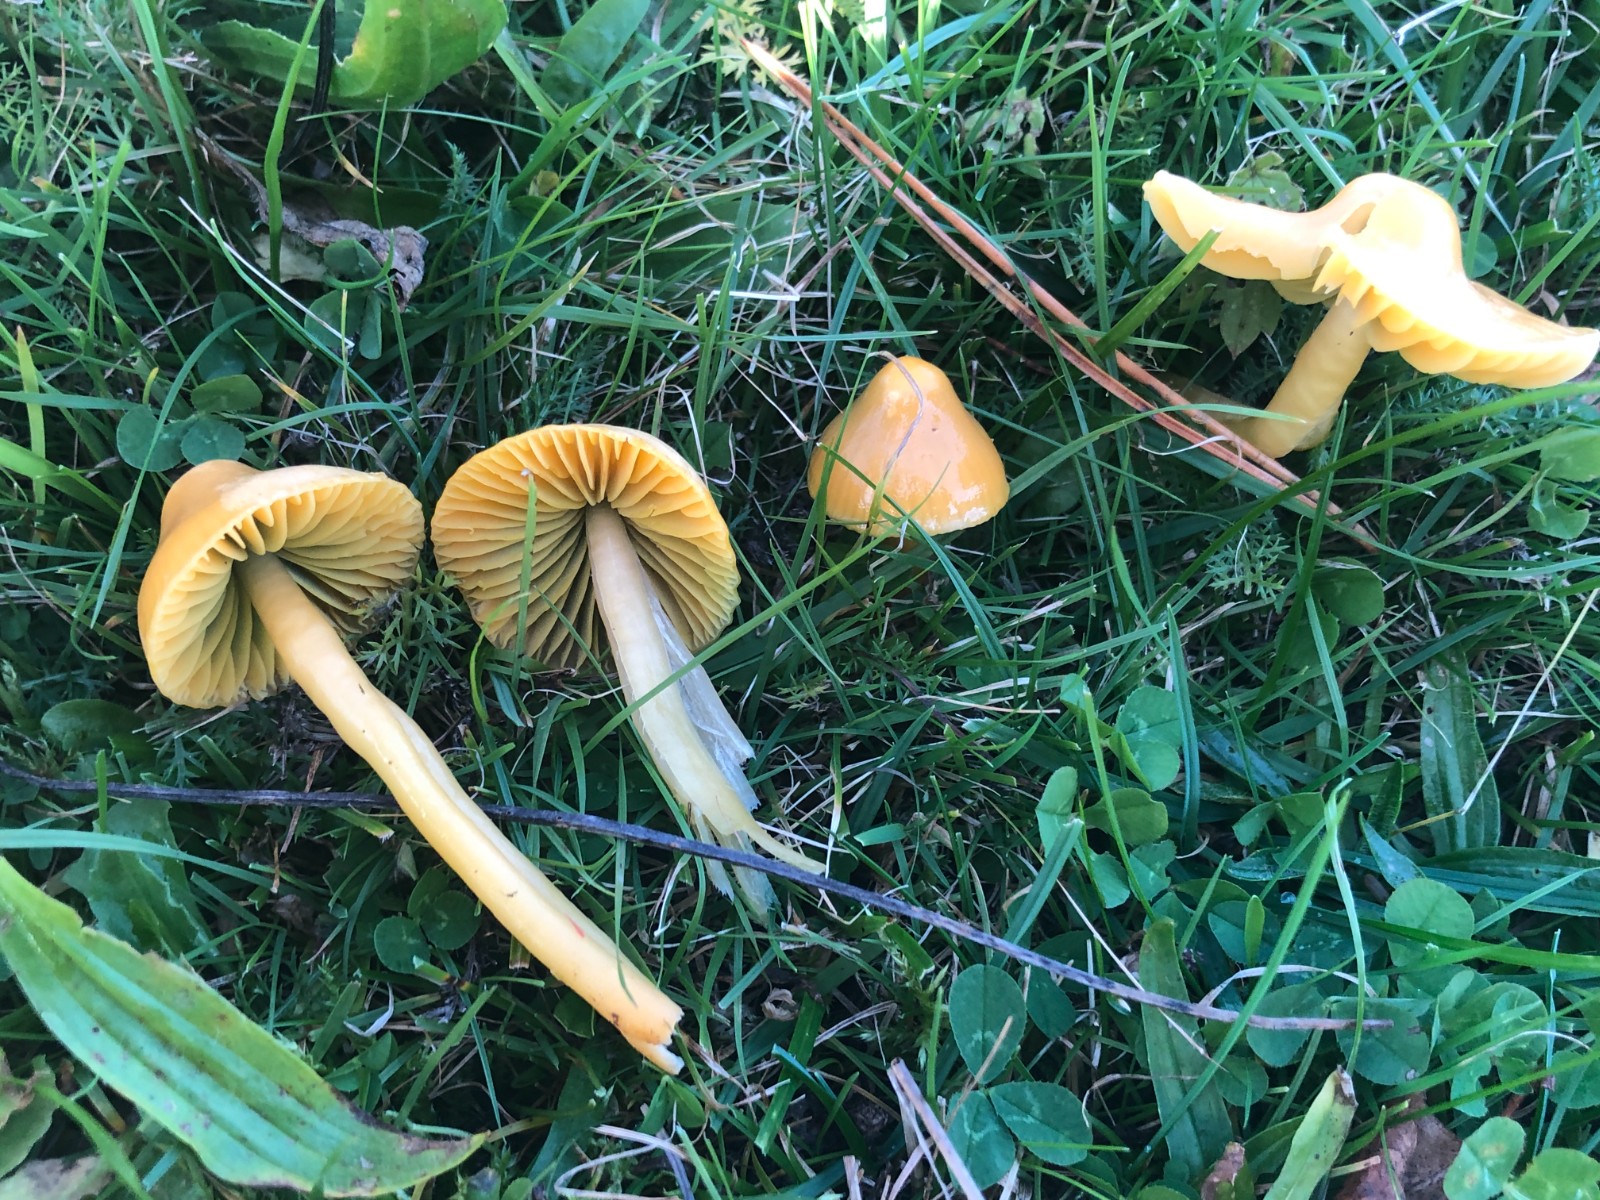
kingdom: Fungi
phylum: Basidiomycota
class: Agaricomycetes
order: Agaricales
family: Hygrophoraceae
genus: Gliophorus
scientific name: Gliophorus psittacinus
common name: papegøje-vokshat
